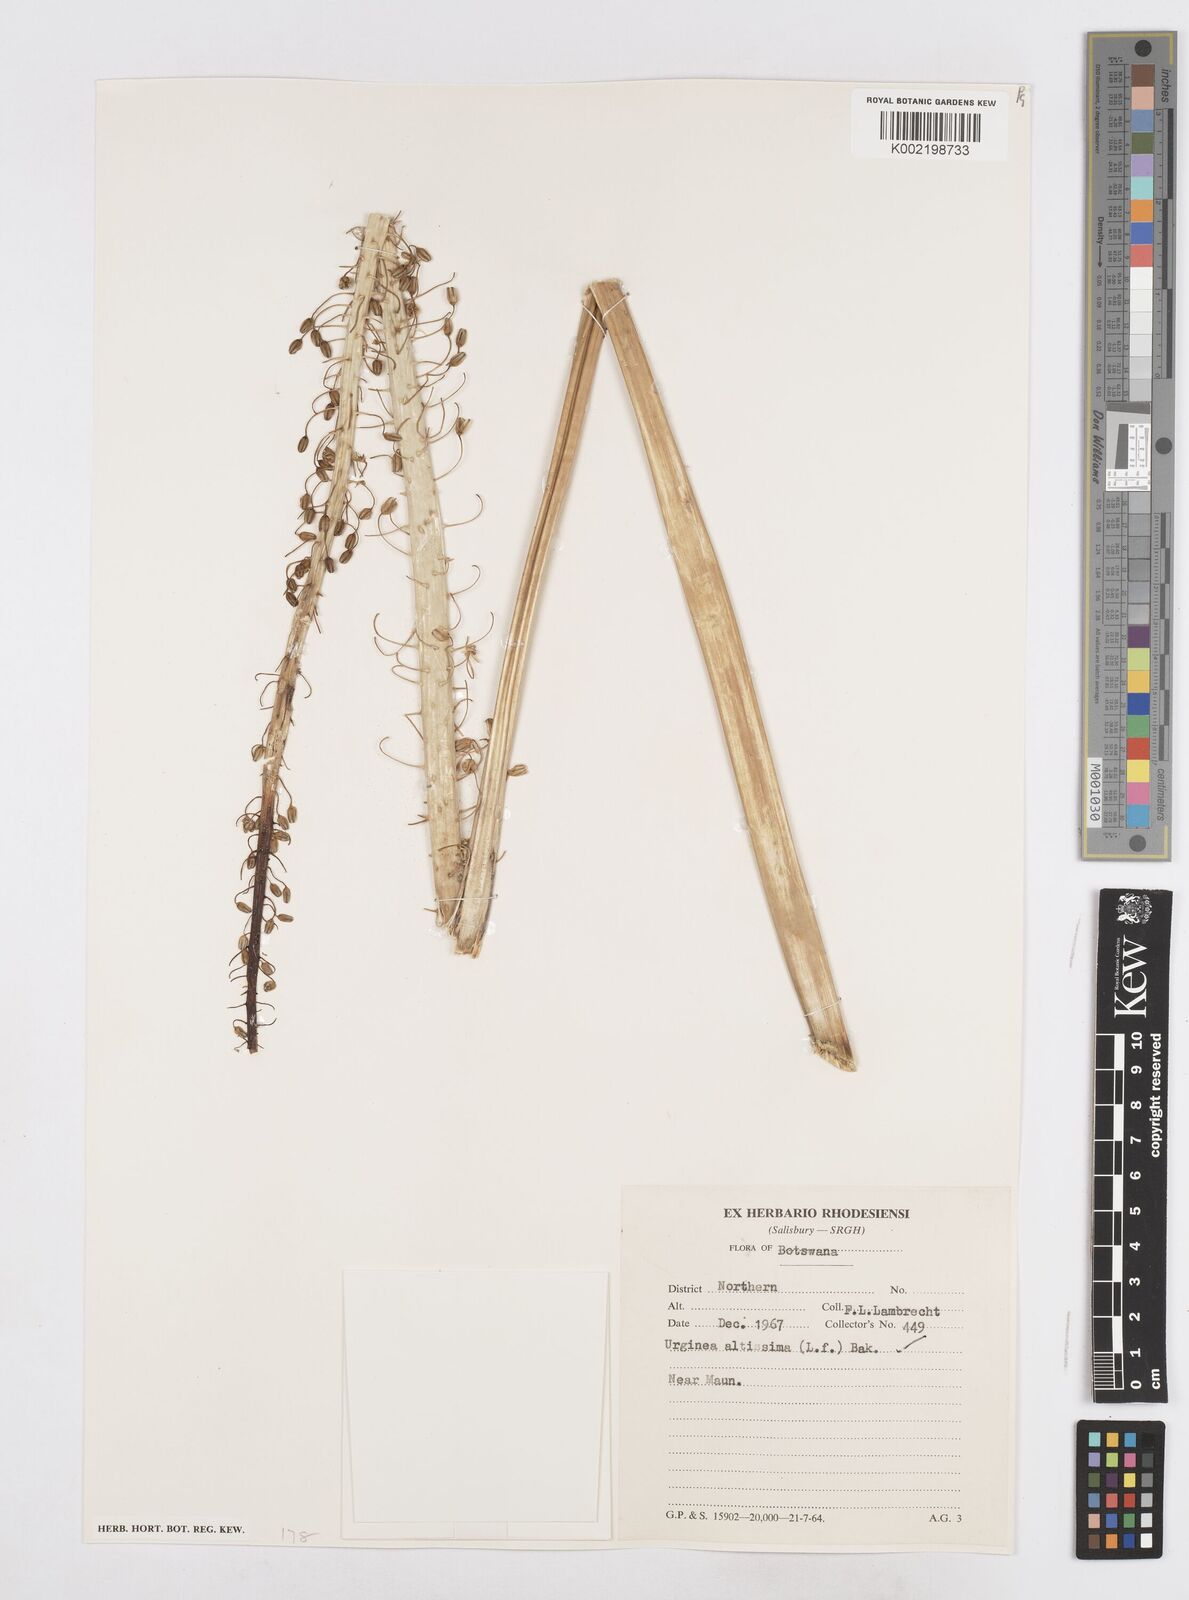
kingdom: Plantae
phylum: Tracheophyta
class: Liliopsida
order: Asparagales
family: Asparagaceae
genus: Drimia
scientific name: Drimia altissima
